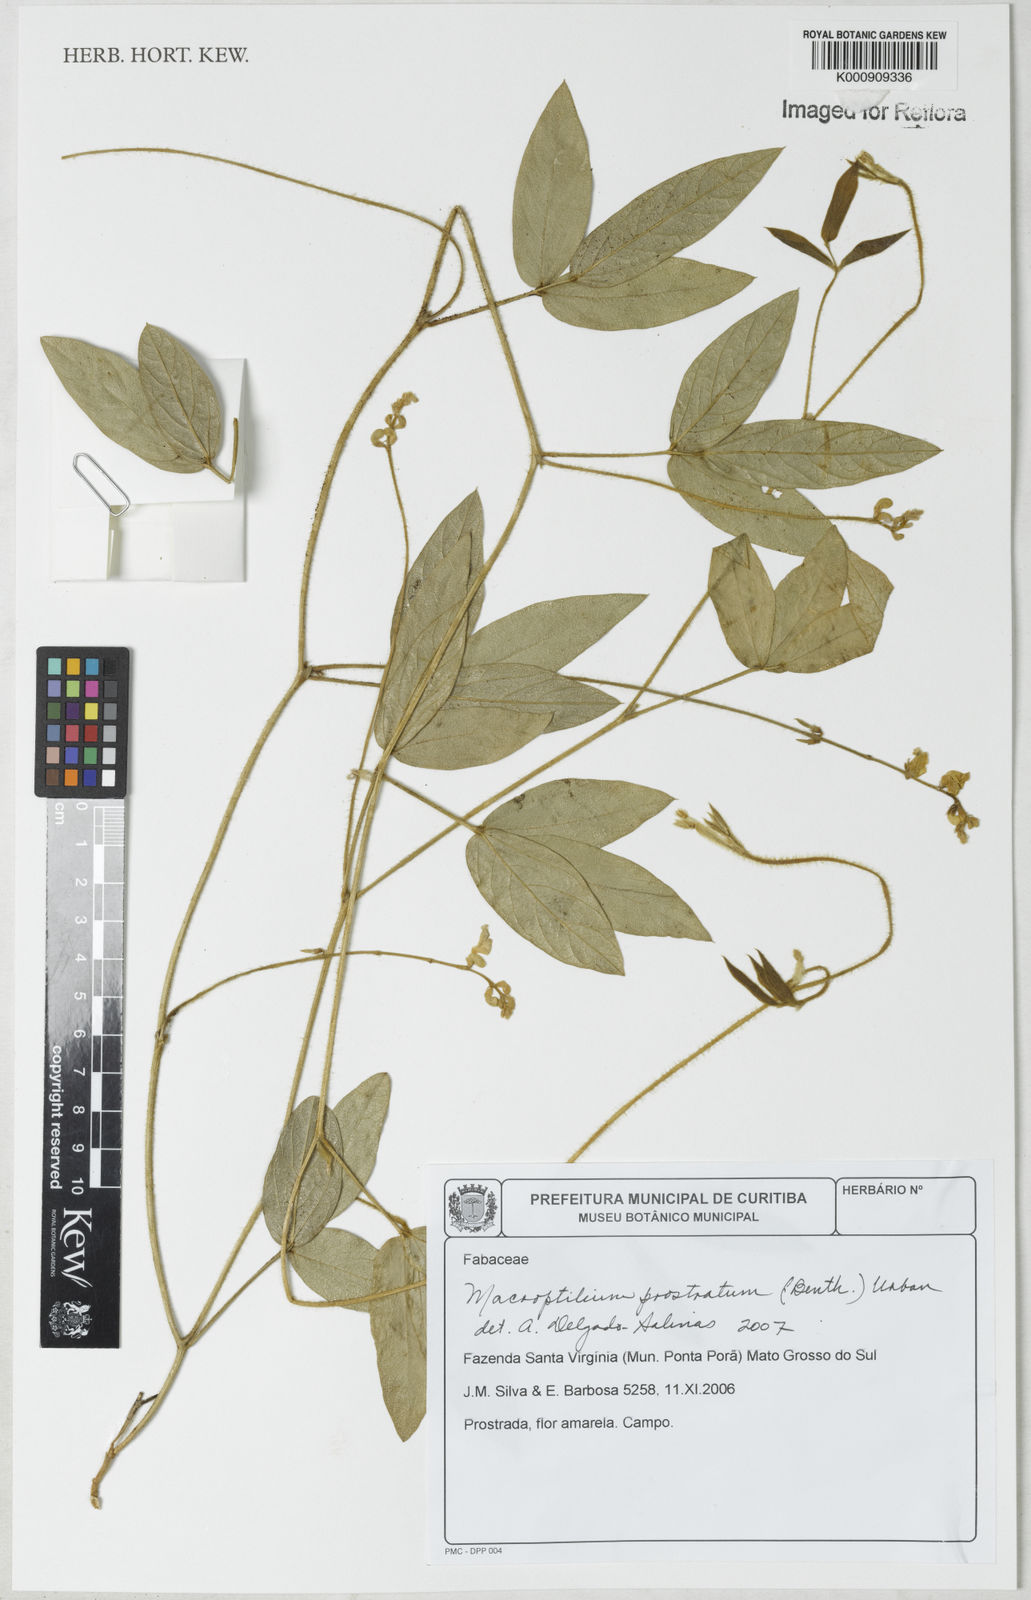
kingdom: Plantae
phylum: Tracheophyta
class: Magnoliopsida
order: Fabales
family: Fabaceae
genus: Macroptilium
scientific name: Macroptilium prostratum
